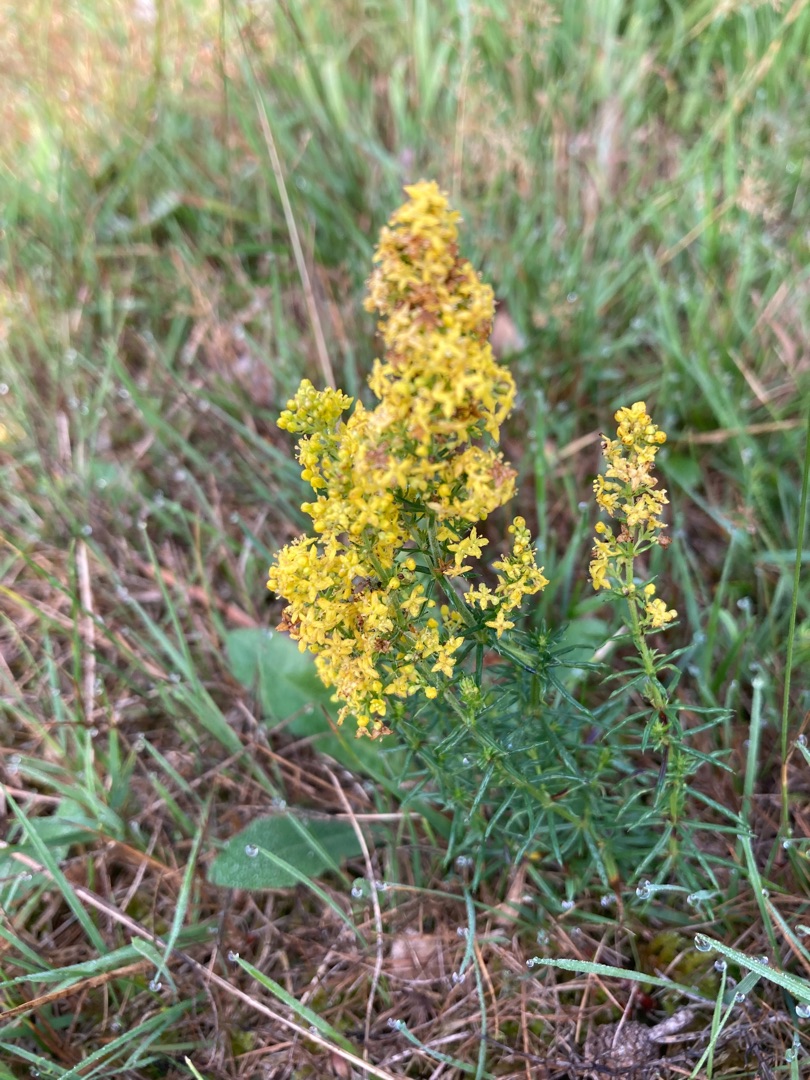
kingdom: Plantae
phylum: Tracheophyta
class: Magnoliopsida
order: Gentianales
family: Rubiaceae
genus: Galium
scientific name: Galium verum
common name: Gul snerre
